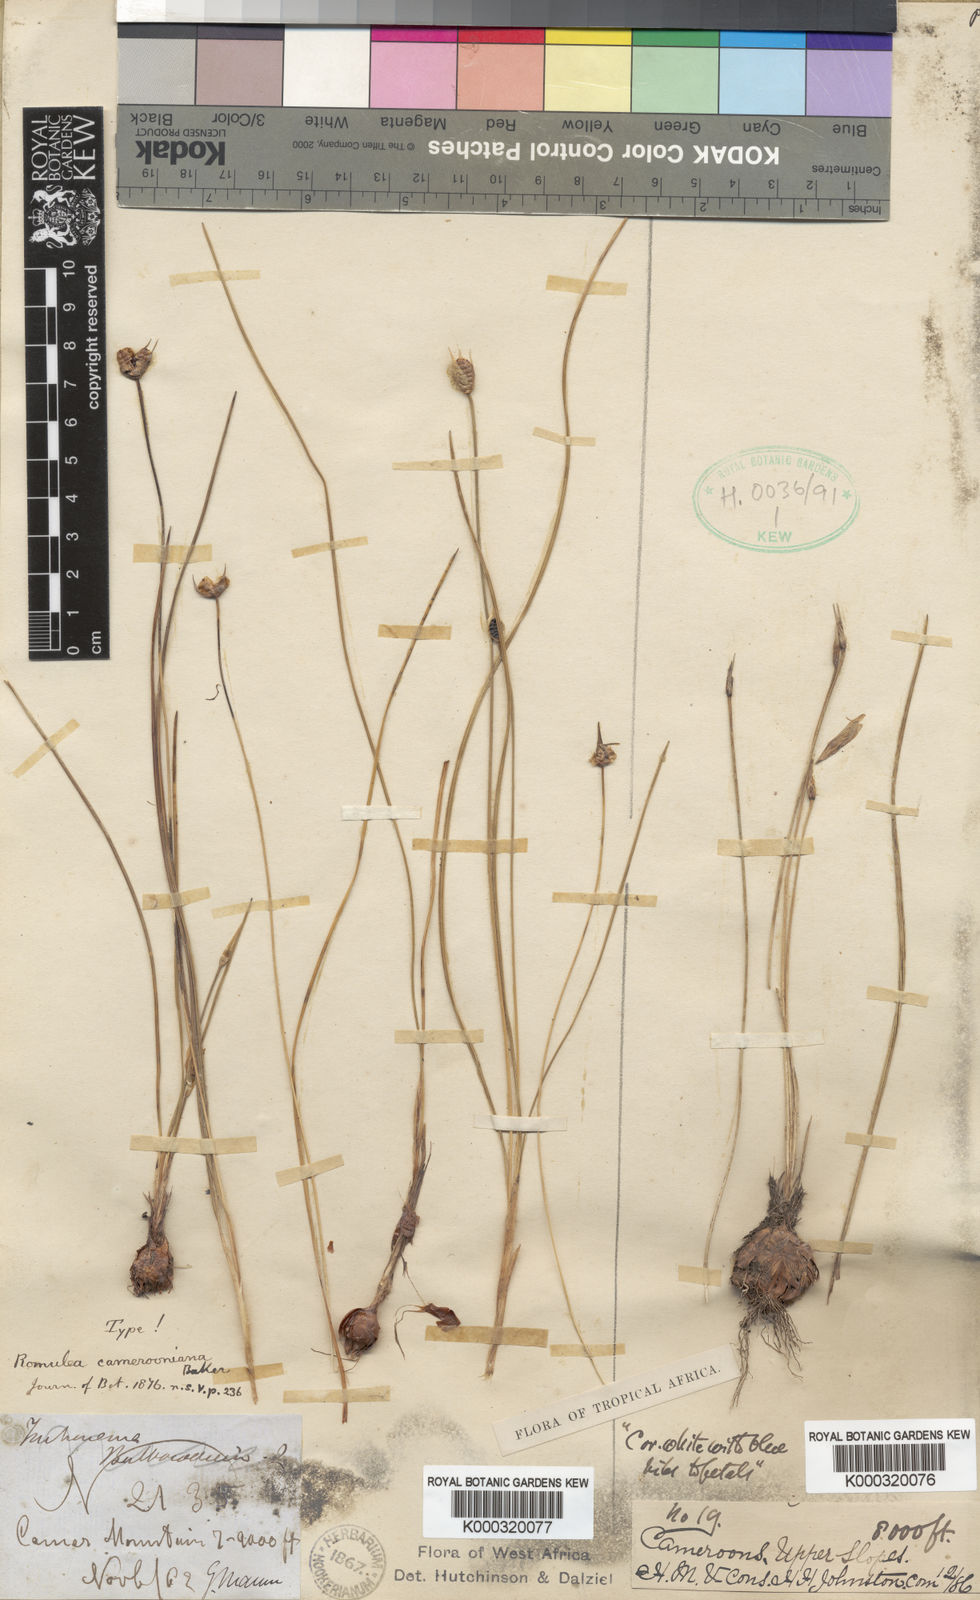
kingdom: Plantae
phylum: Tracheophyta
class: Liliopsida
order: Asparagales
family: Iridaceae
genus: Romulea
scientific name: Romulea camerooniana
